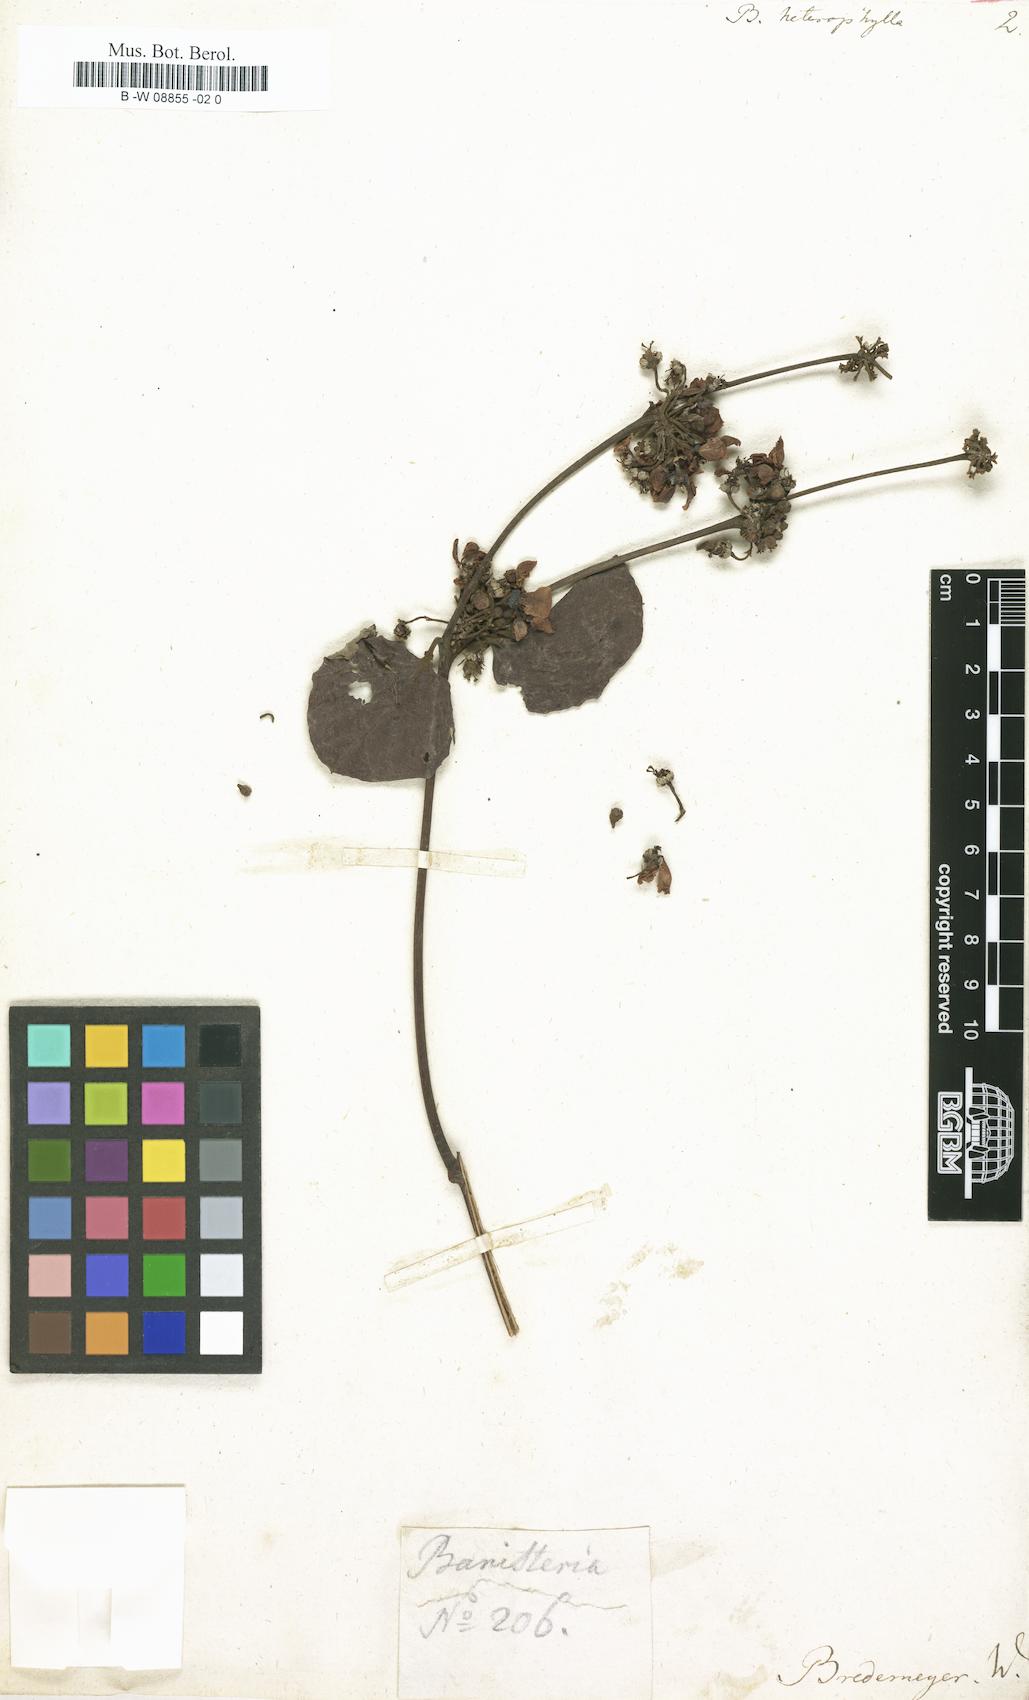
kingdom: Plantae
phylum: Tracheophyta
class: Magnoliopsida
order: Malpighiales
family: Malpighiaceae
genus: Stigmaphyllon
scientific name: Stigmaphyllon
